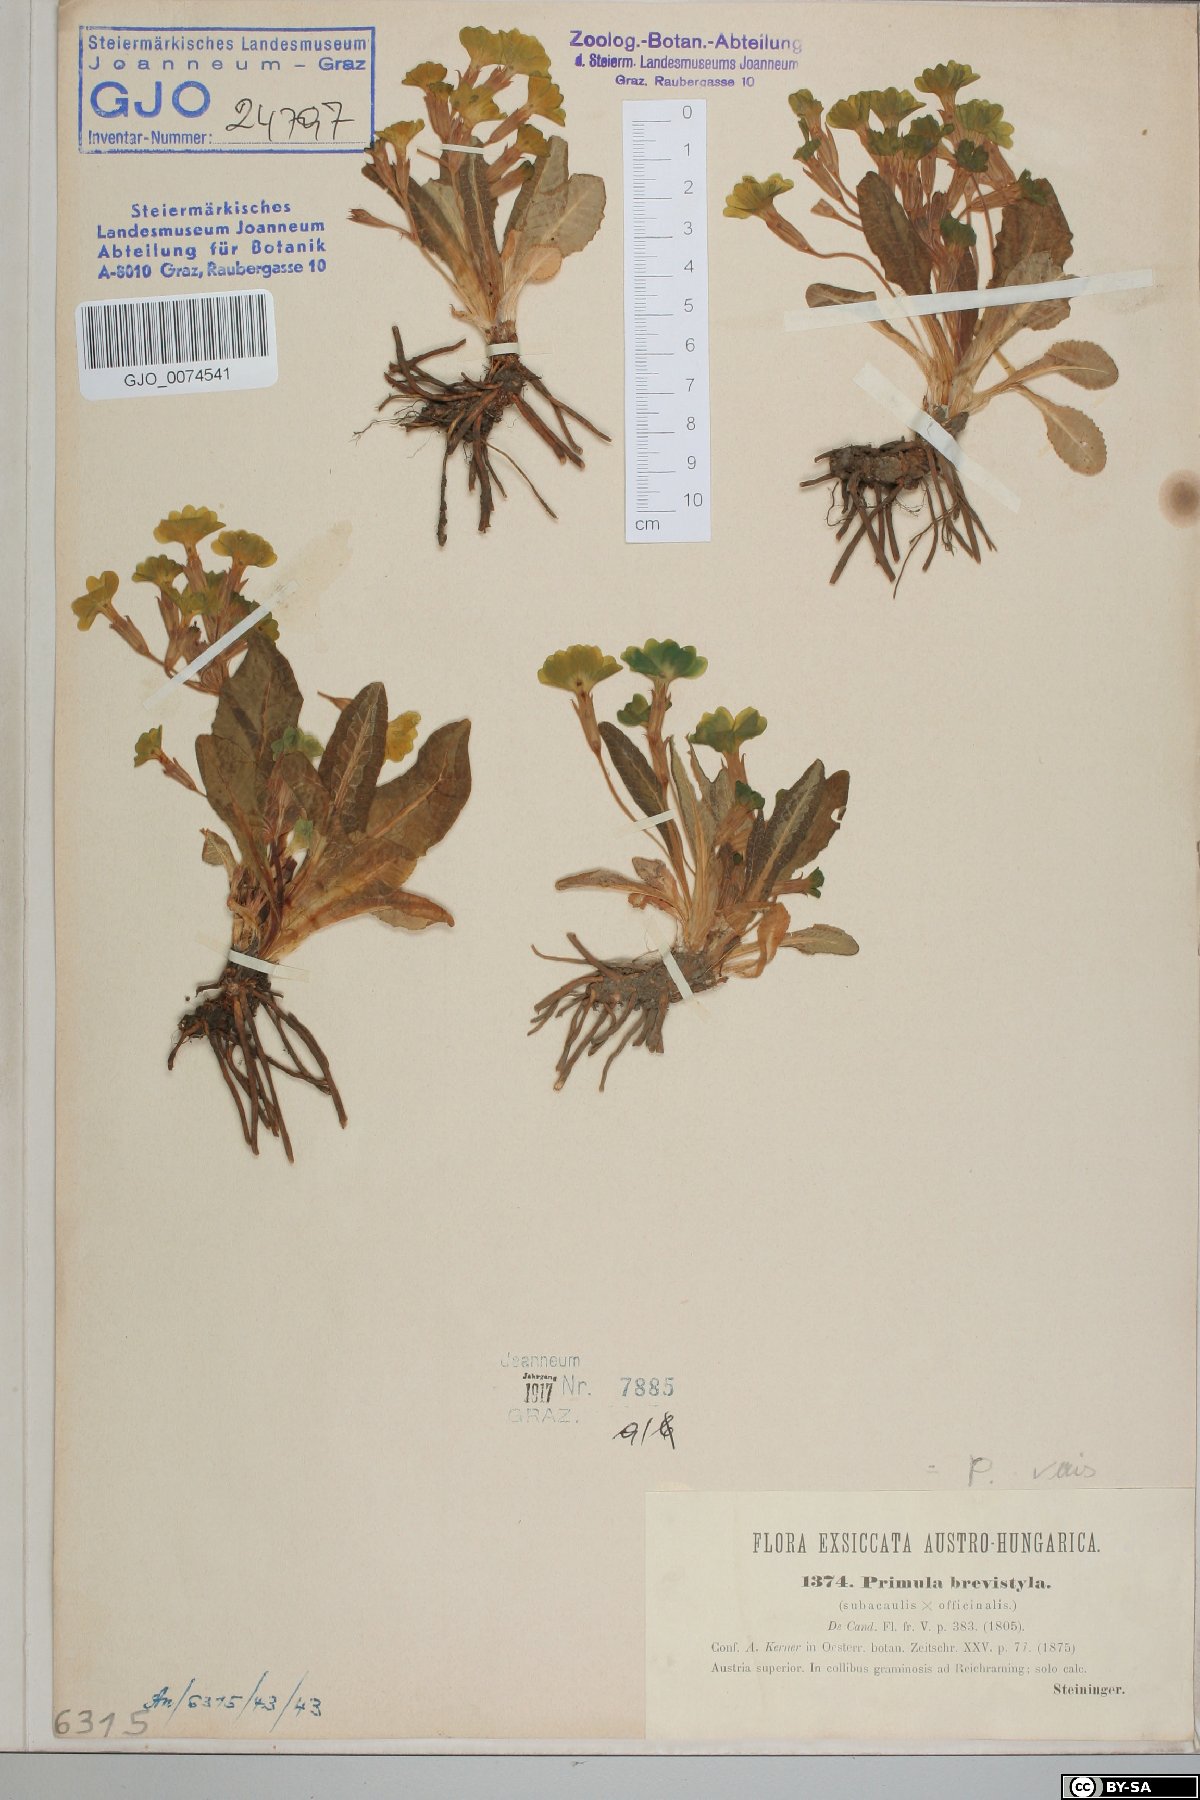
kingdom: Plantae
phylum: Tracheophyta
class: Magnoliopsida
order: Ericales
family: Primulaceae
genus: Primula
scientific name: Primula polyantha
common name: False oxlip
